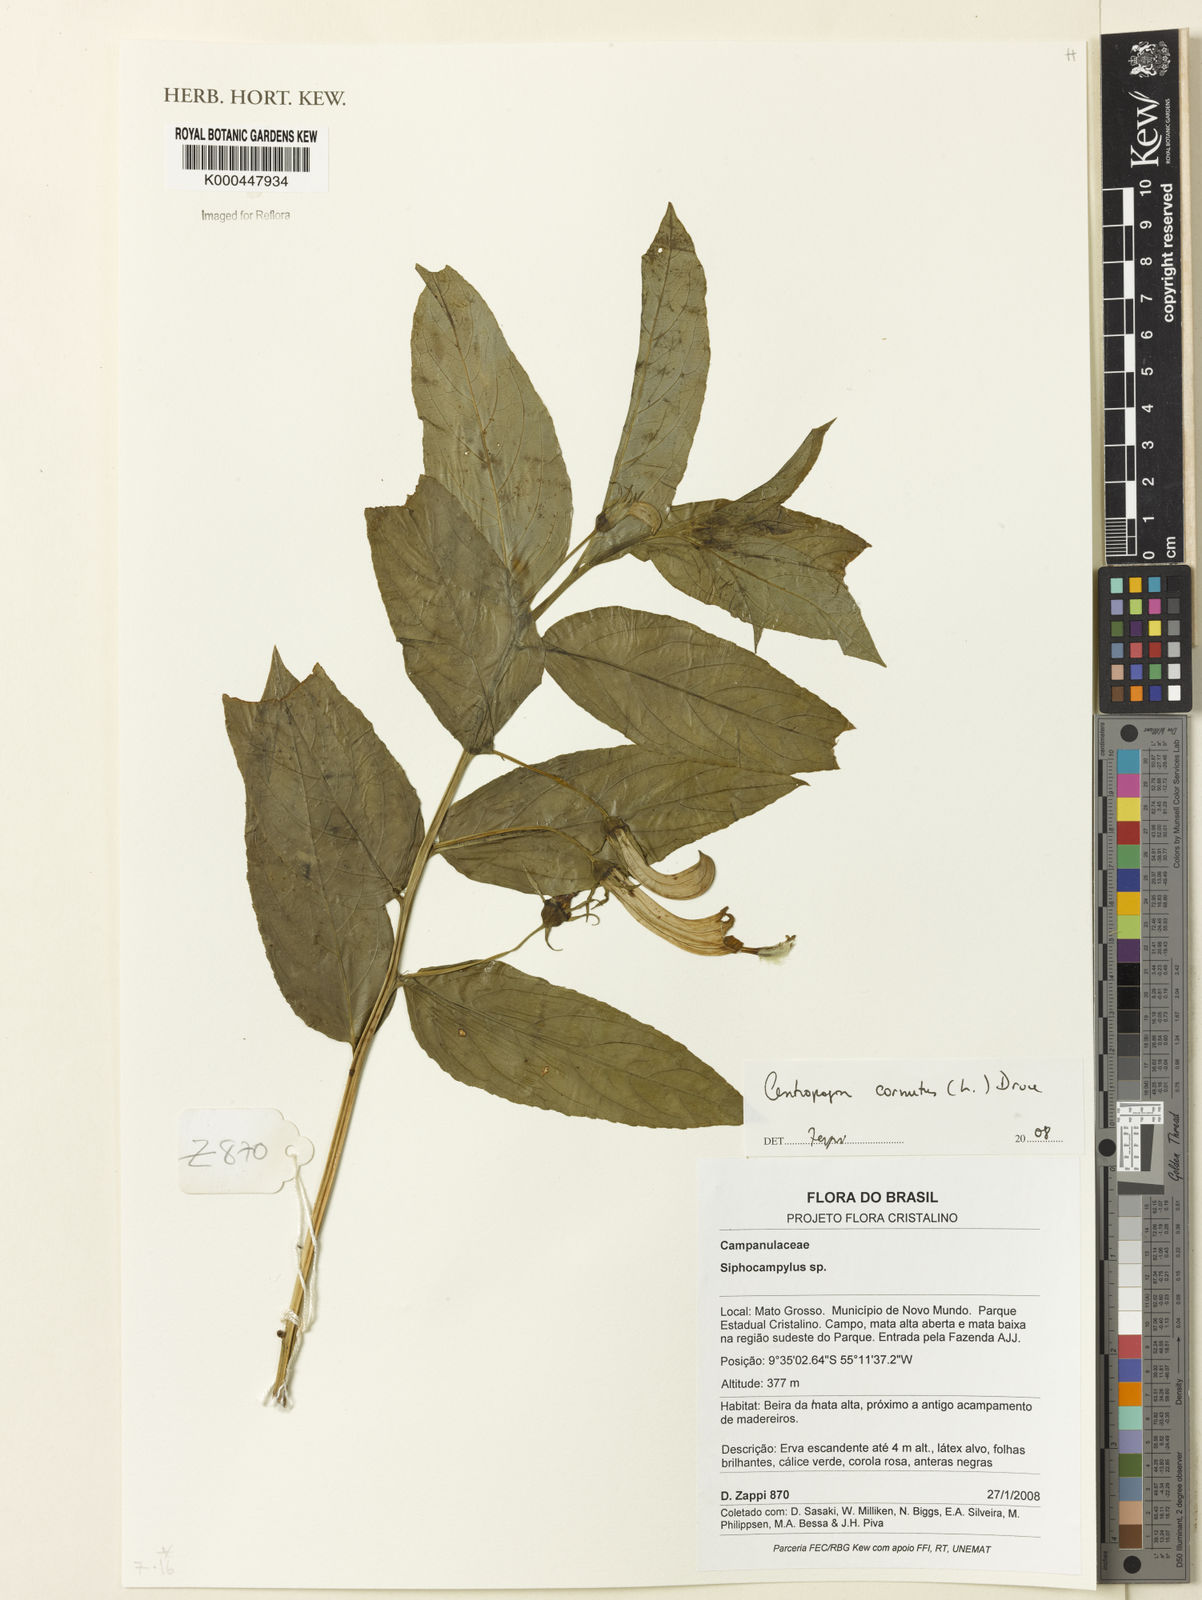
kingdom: Plantae
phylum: Tracheophyta
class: Magnoliopsida
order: Asterales
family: Campanulaceae
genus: Centropogon
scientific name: Centropogon cornutus
